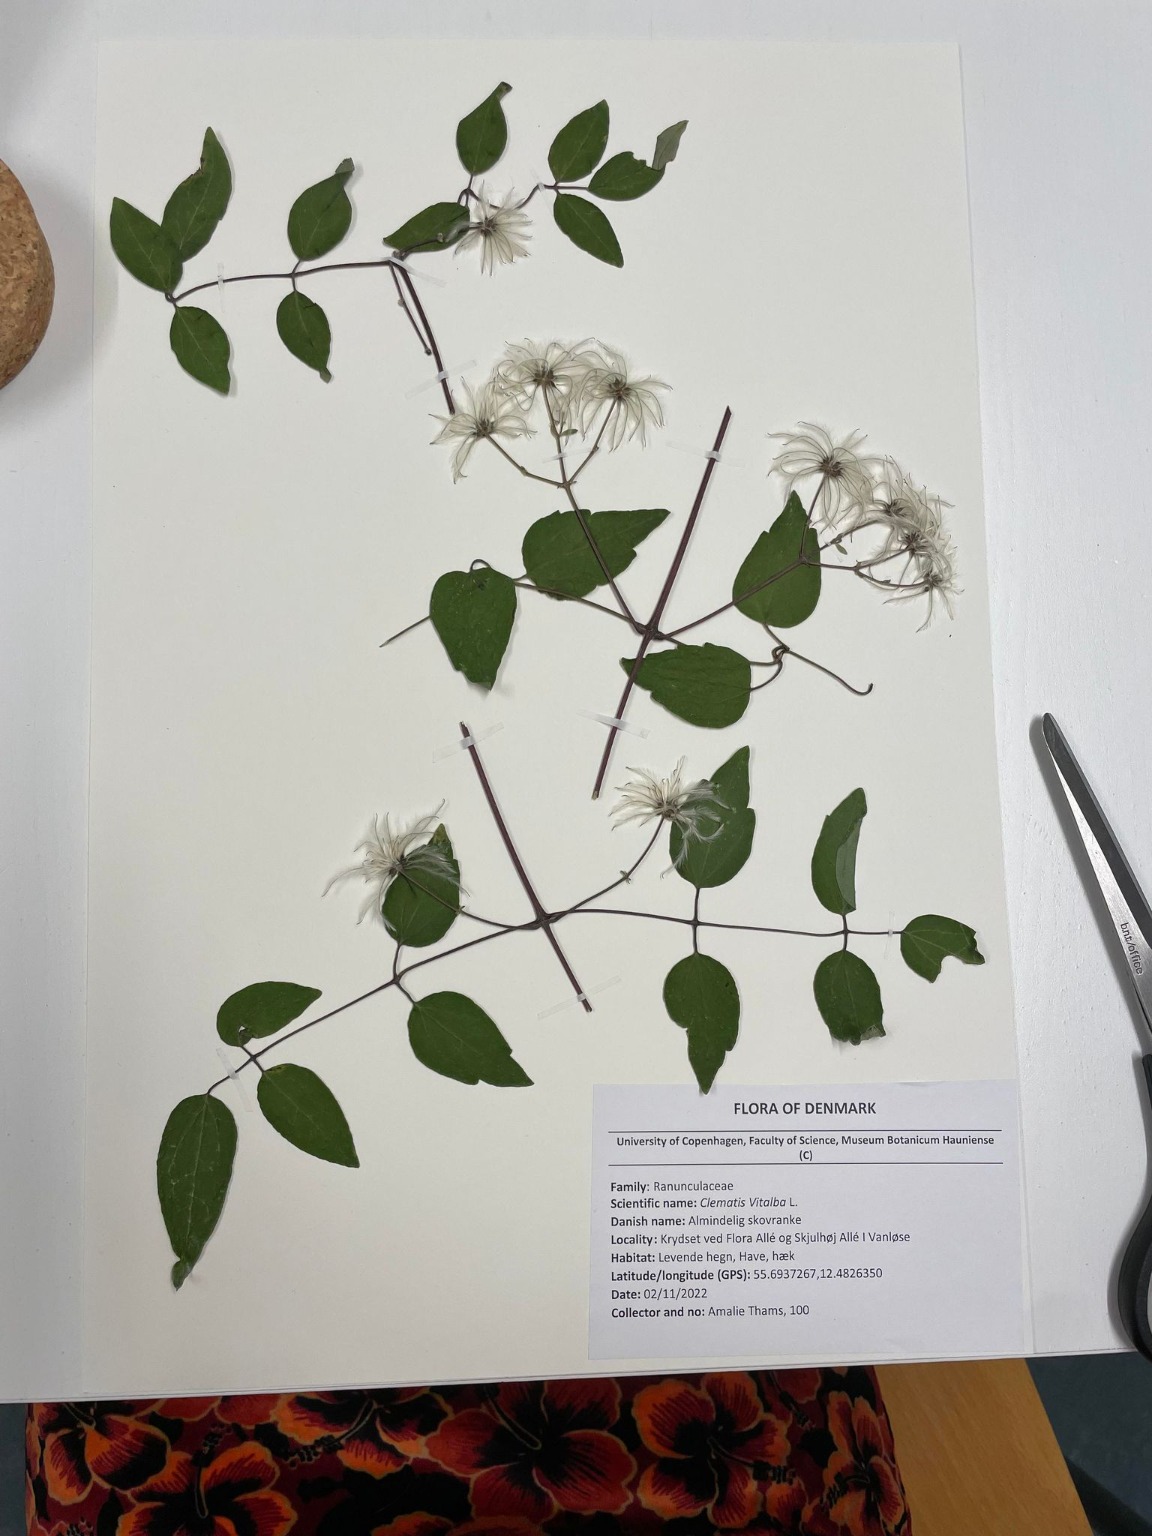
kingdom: Plantae
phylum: Tracheophyta
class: Magnoliopsida
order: Ranunculales
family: Ranunculaceae
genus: Clematis
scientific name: Clematis vitalba
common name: Skovranke
